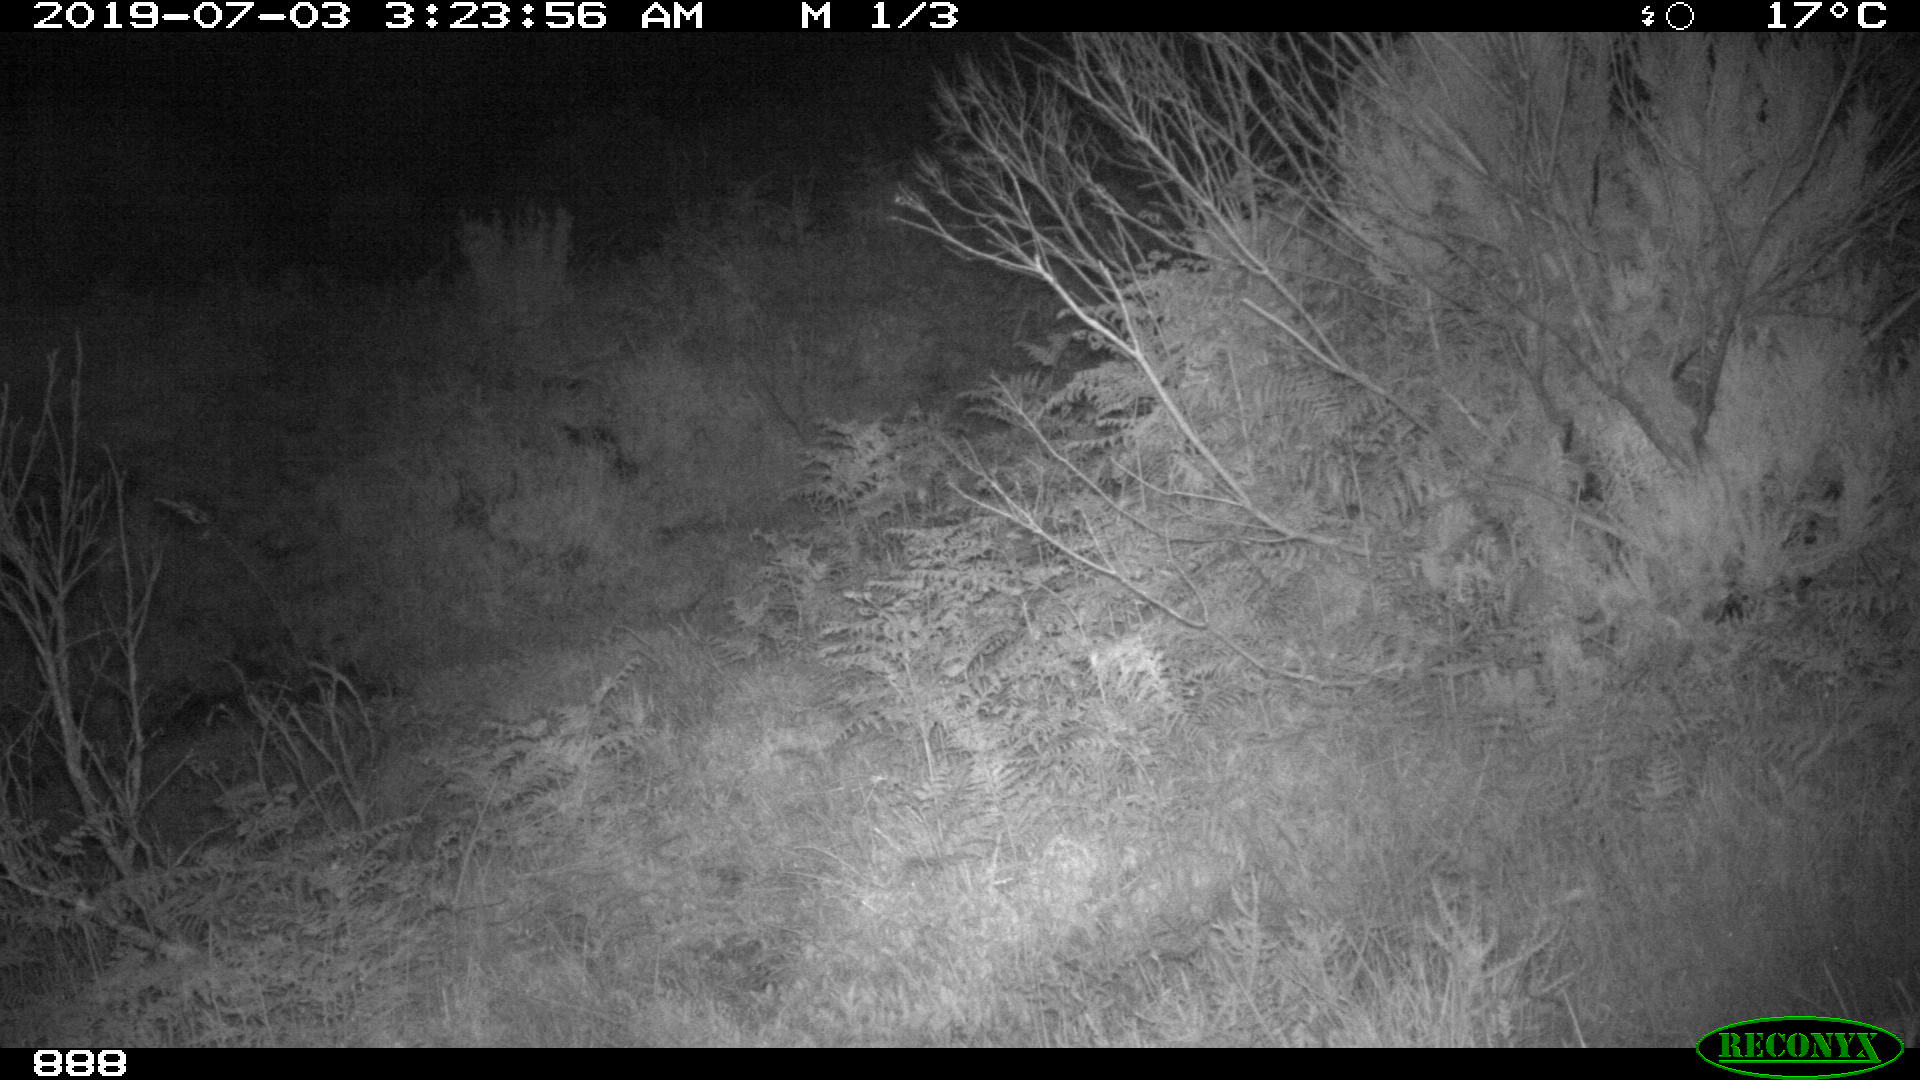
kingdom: Animalia
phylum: Chordata
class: Mammalia
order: Perissodactyla
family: Equidae
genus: Equus
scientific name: Equus caballus
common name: Horse
